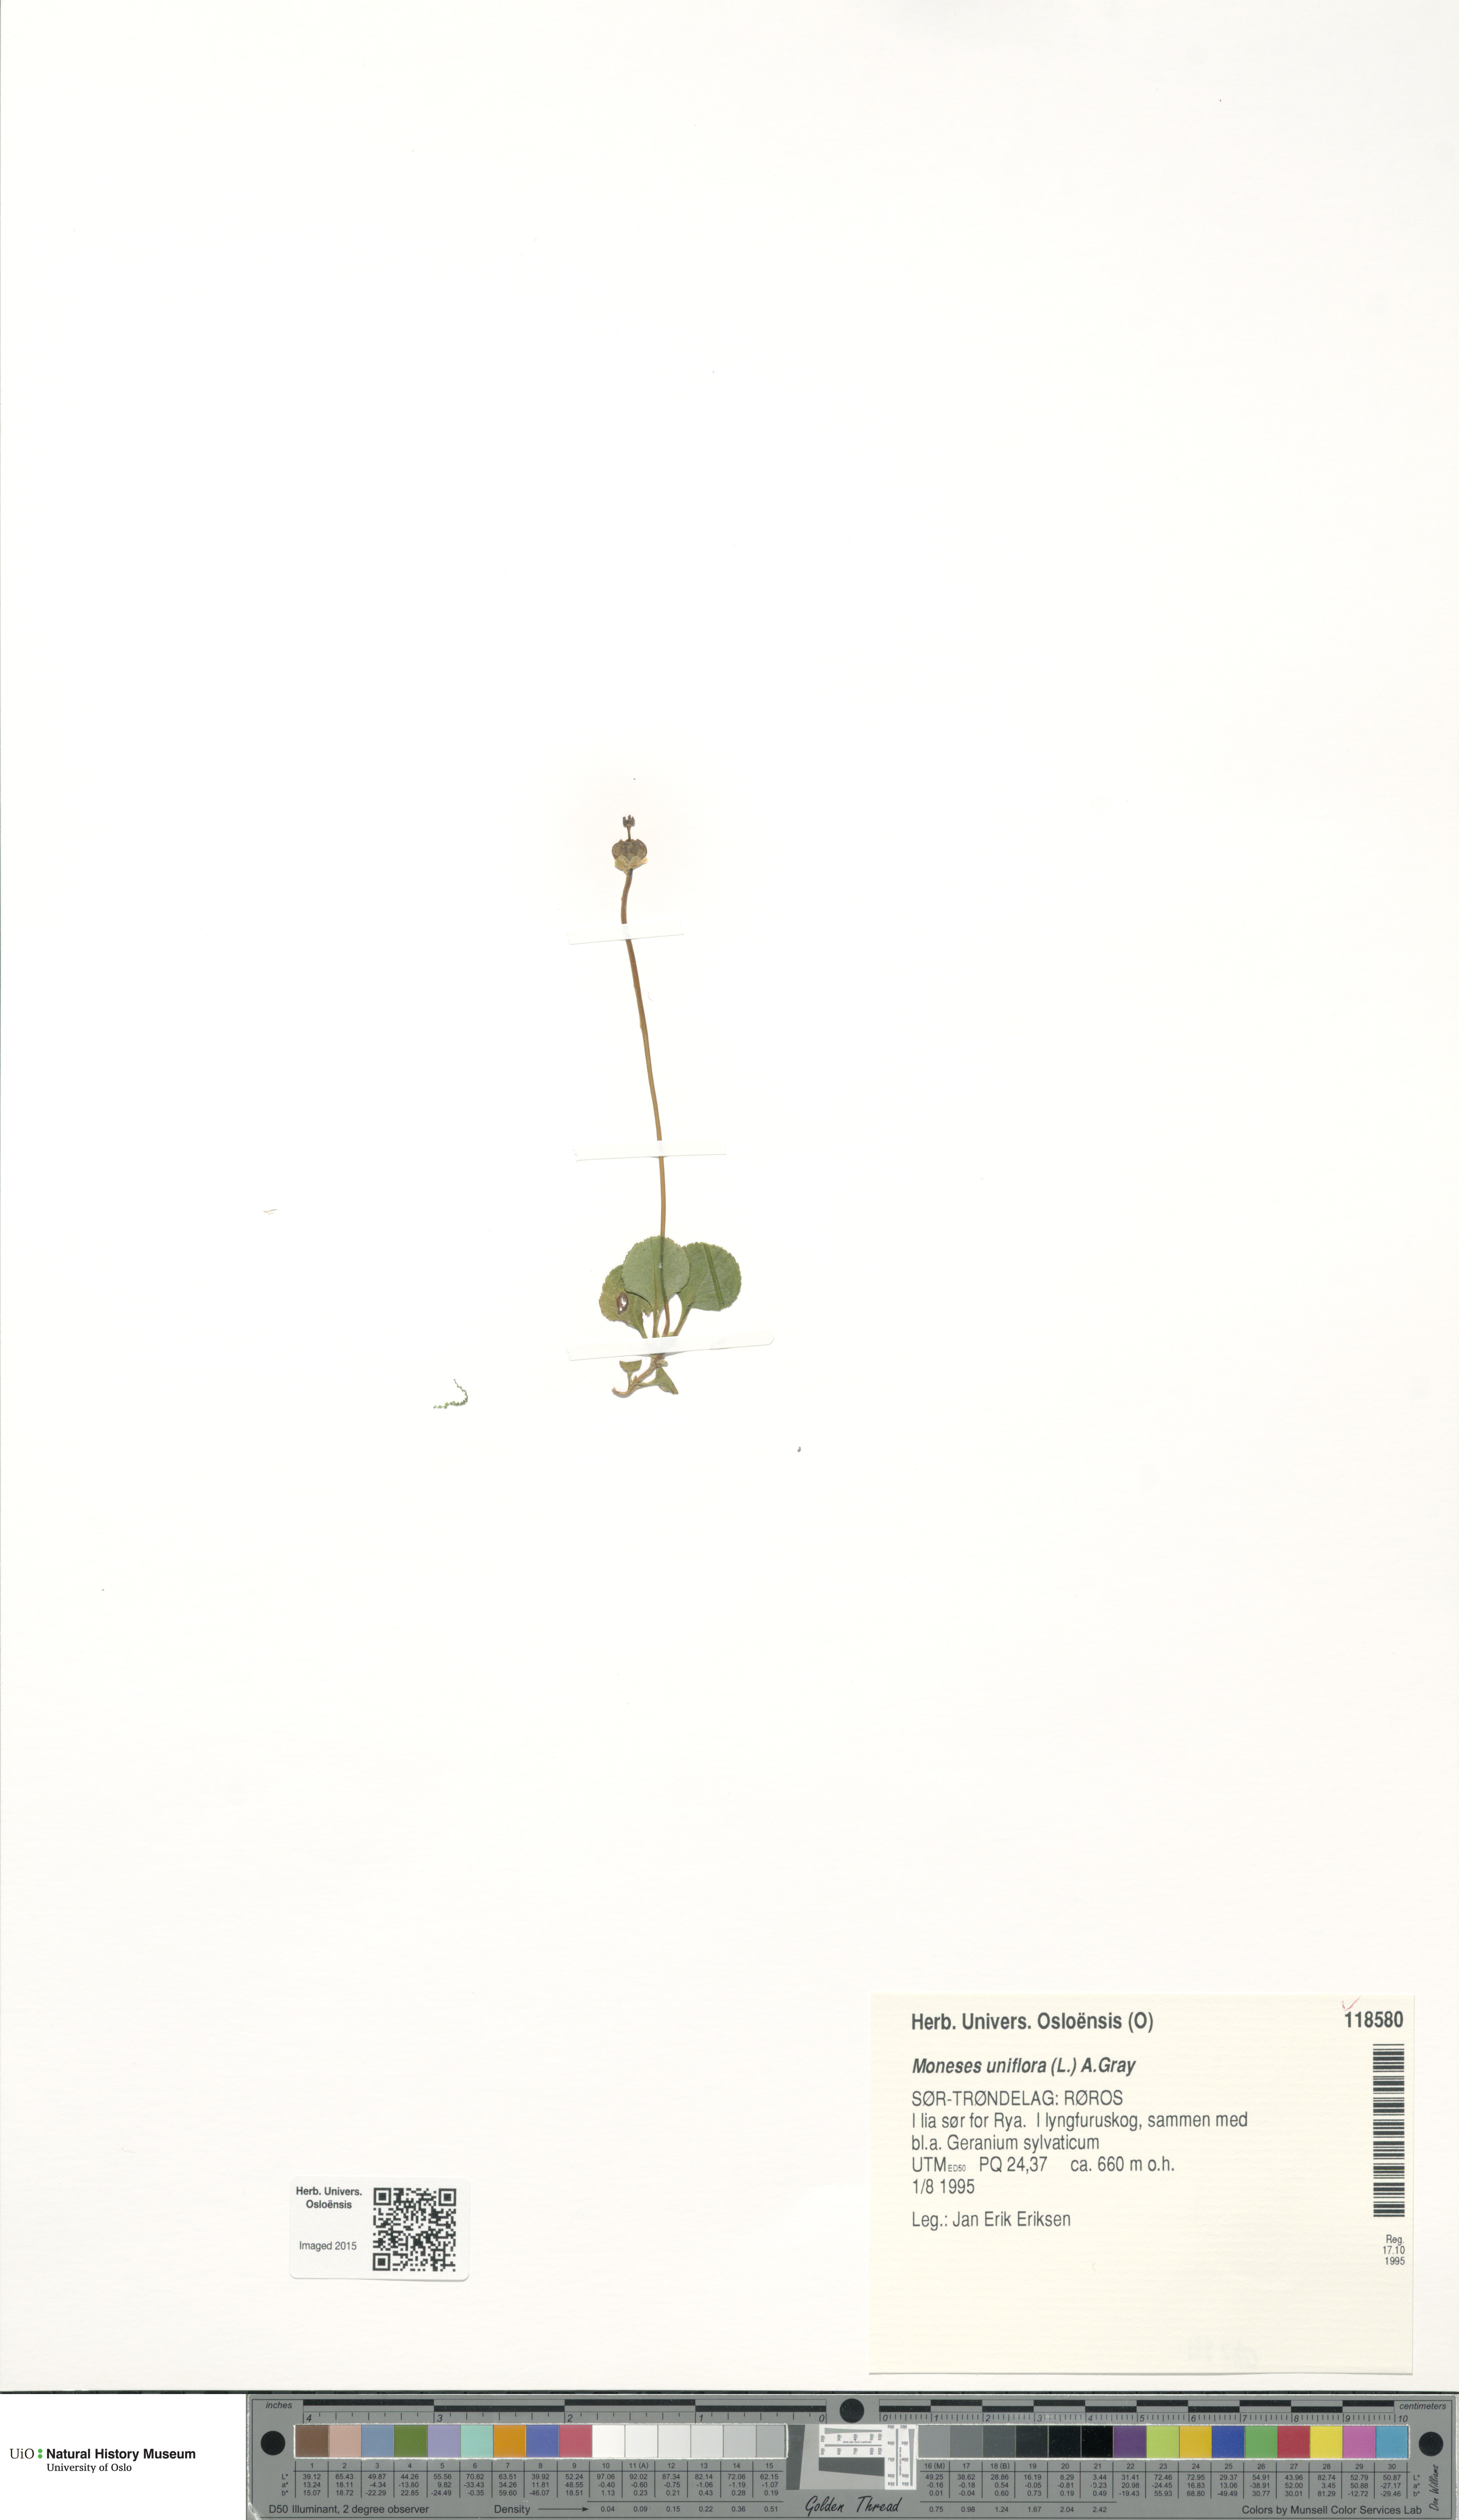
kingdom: Plantae
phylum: Tracheophyta
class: Magnoliopsida
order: Ericales
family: Ericaceae
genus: Moneses
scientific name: Moneses uniflora
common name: One-flowered wintergreen
